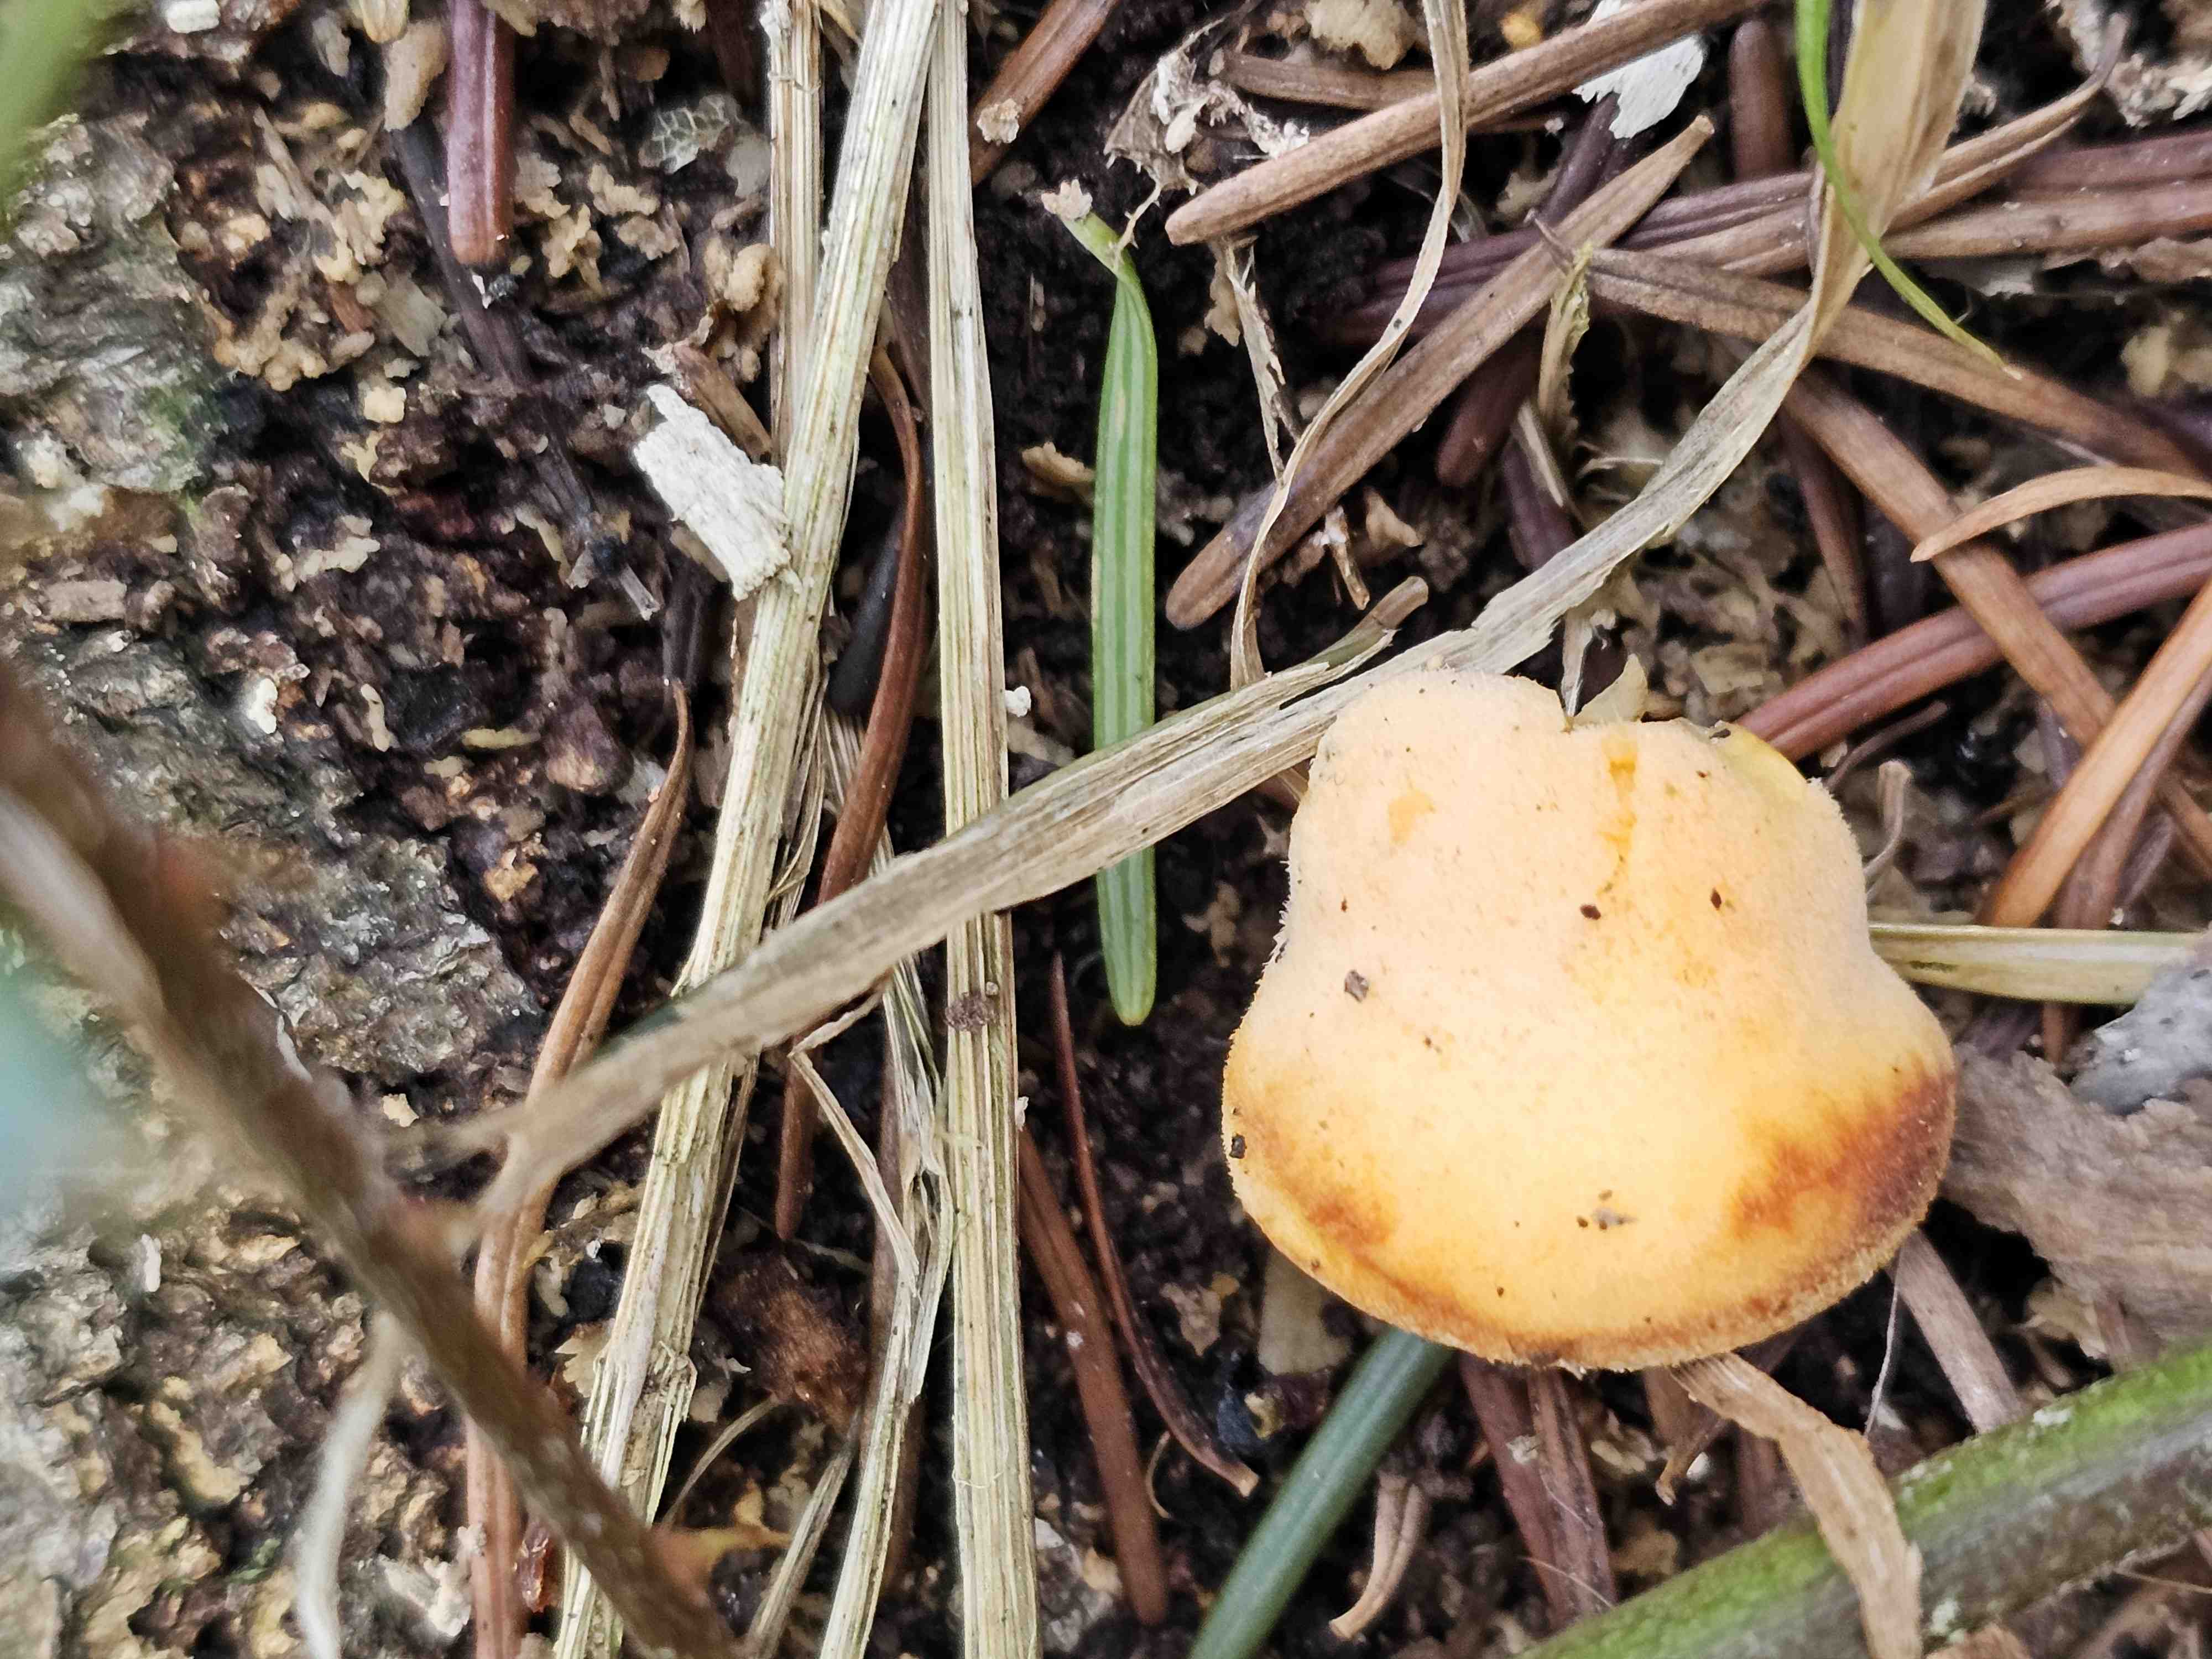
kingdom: Fungi
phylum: Basidiomycota
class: Agaricomycetes
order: Agaricales
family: Phyllotopsidaceae
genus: Phyllotopsis
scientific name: Phyllotopsis nidulans
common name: okkerblad
